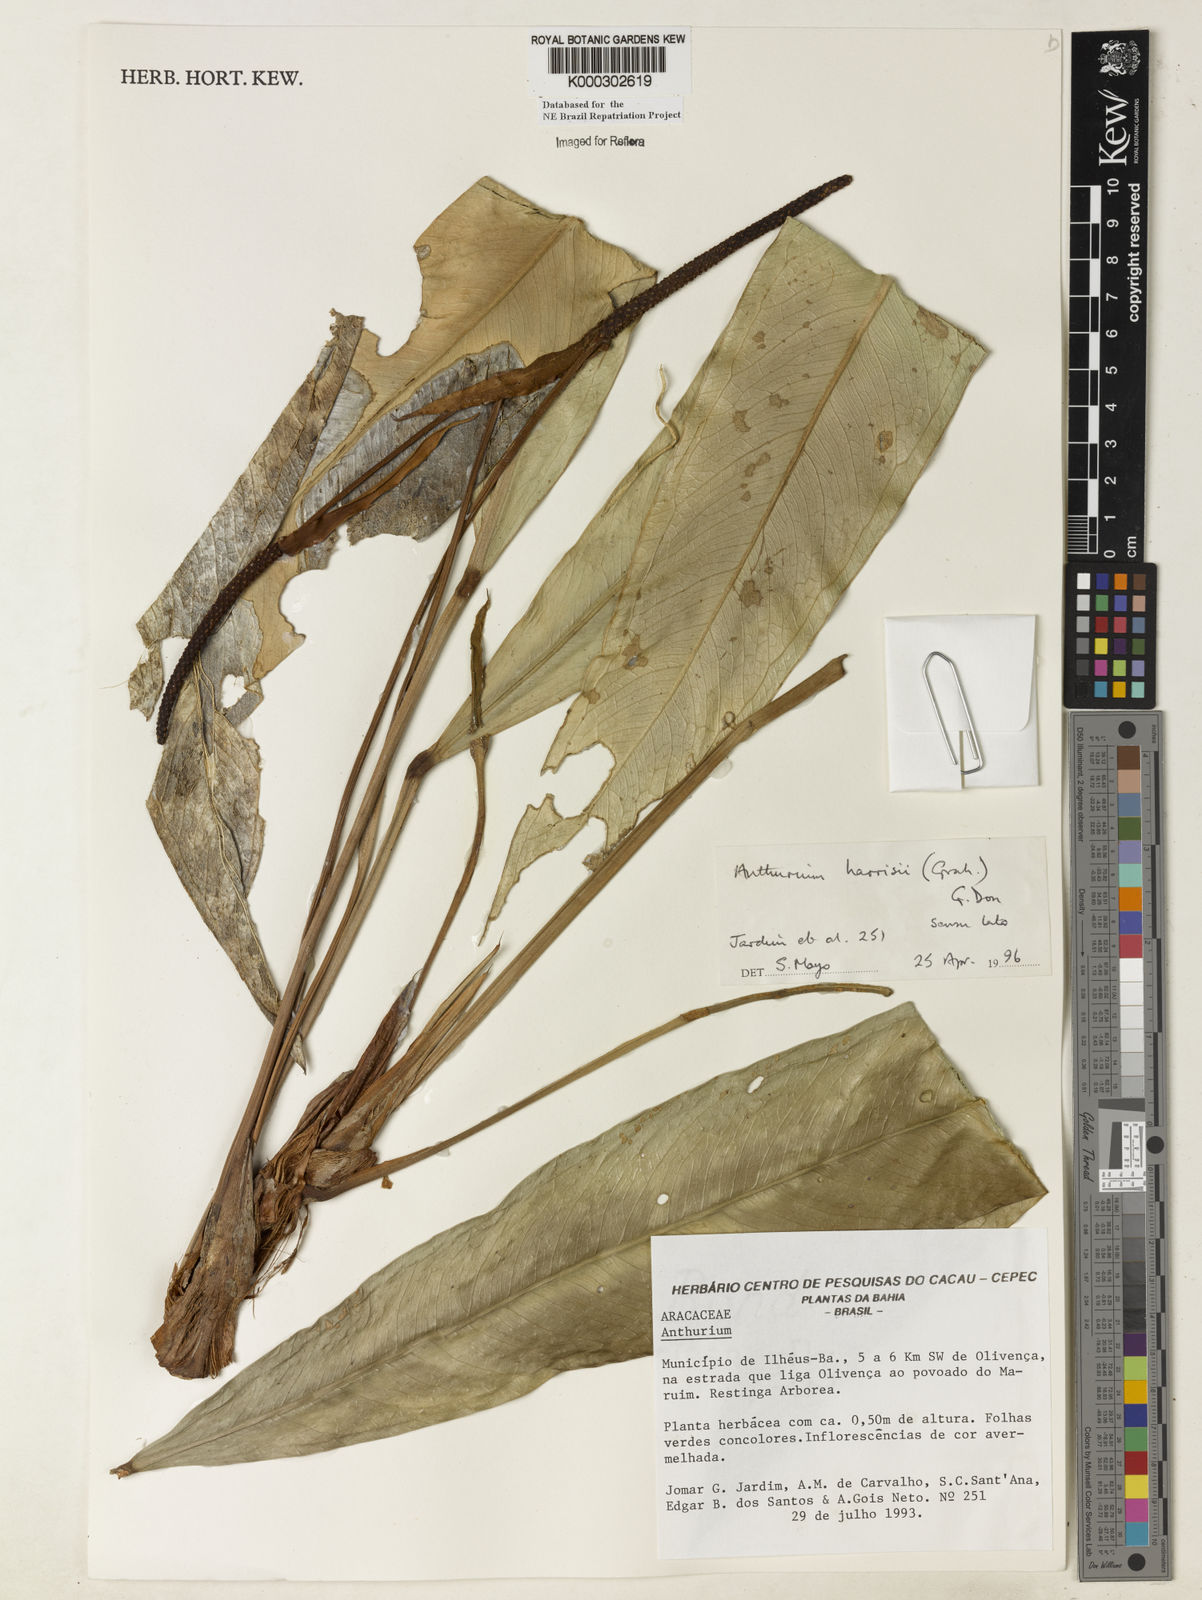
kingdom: Plantae
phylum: Tracheophyta
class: Liliopsida
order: Alismatales
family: Araceae
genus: Anthurium
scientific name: Anthurium harrisii
